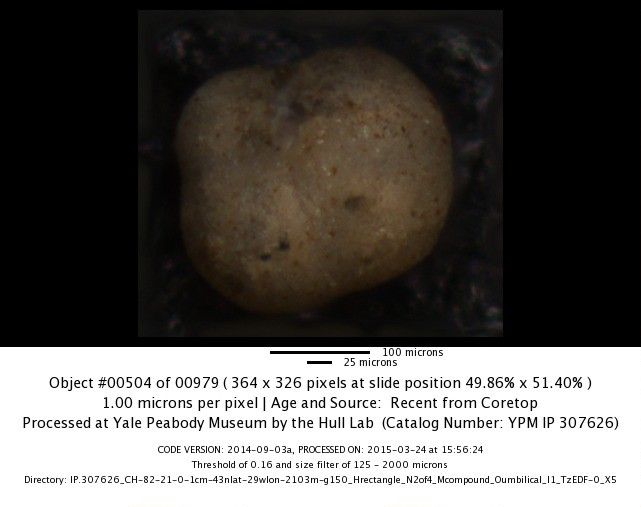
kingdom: Chromista
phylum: Foraminifera
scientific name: Foraminifera
